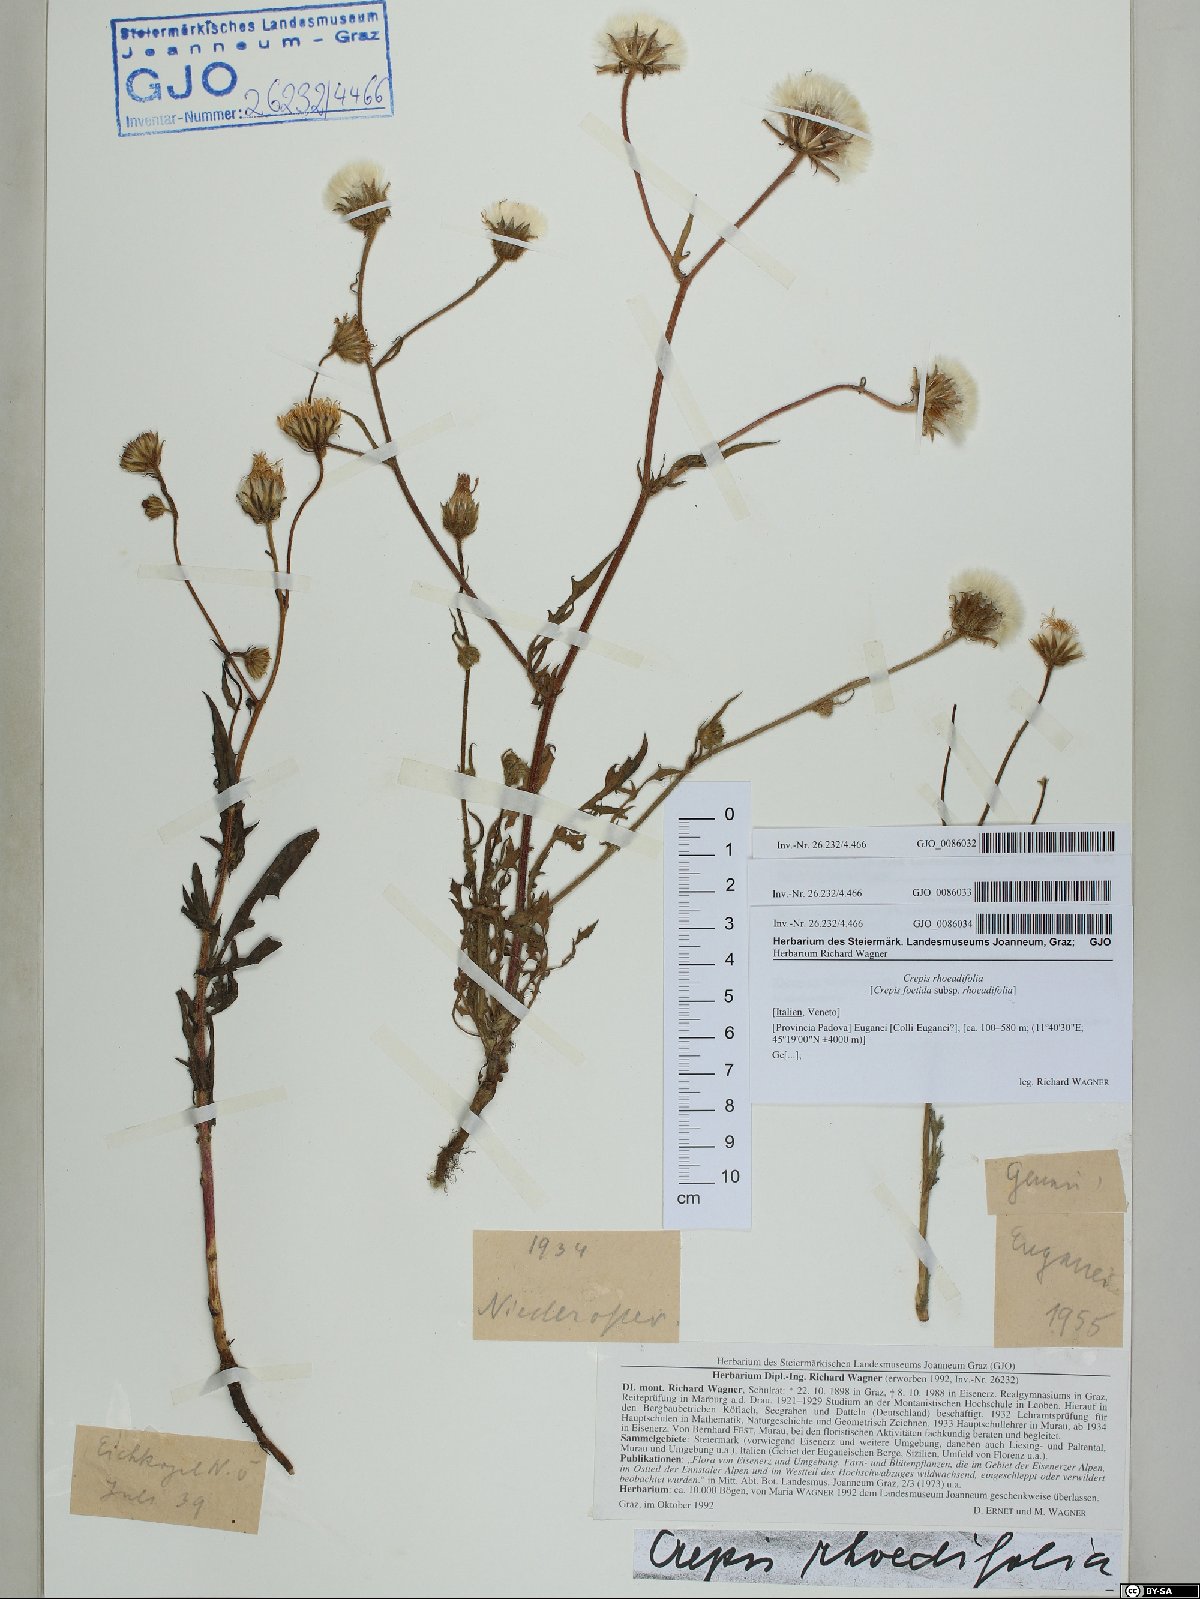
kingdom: Plantae
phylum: Tracheophyta
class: Magnoliopsida
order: Asterales
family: Asteraceae
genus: Crepis
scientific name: Crepis foetida
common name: Stinking hawk's-beard
